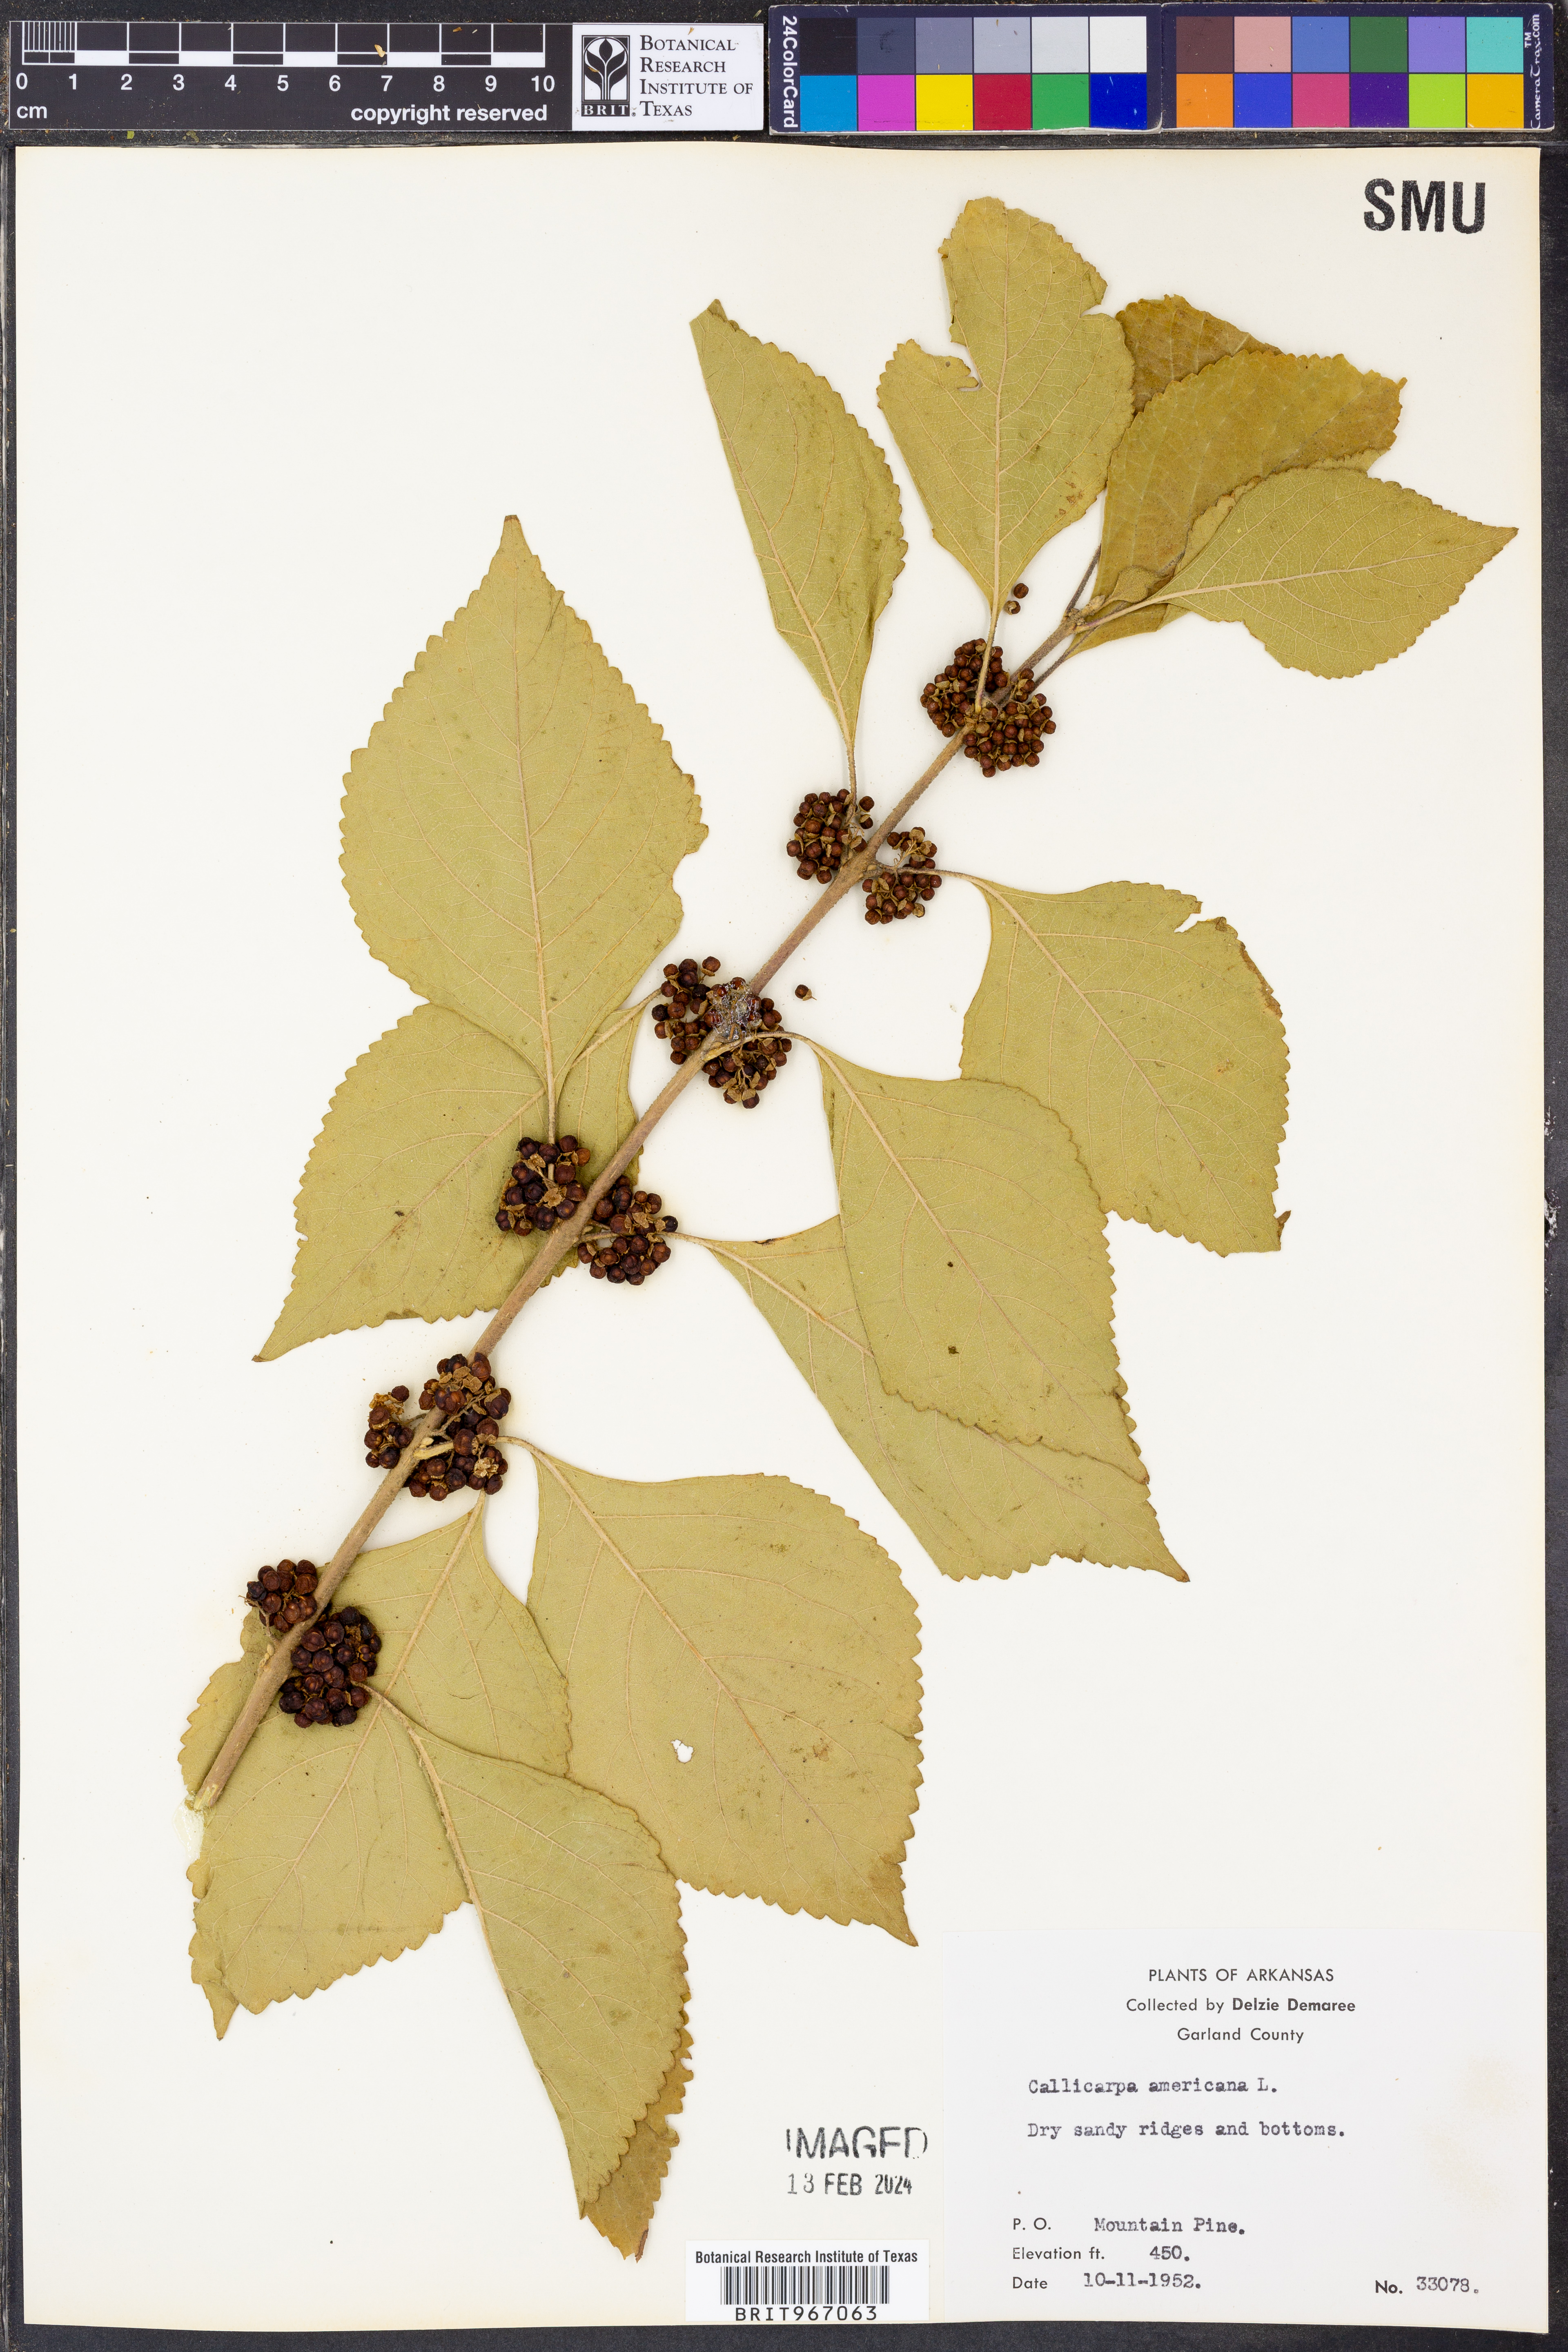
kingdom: Plantae
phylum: Tracheophyta
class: Magnoliopsida
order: Lamiales
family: Lamiaceae
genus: Callicarpa
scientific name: Callicarpa americana
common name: American beautyberry
